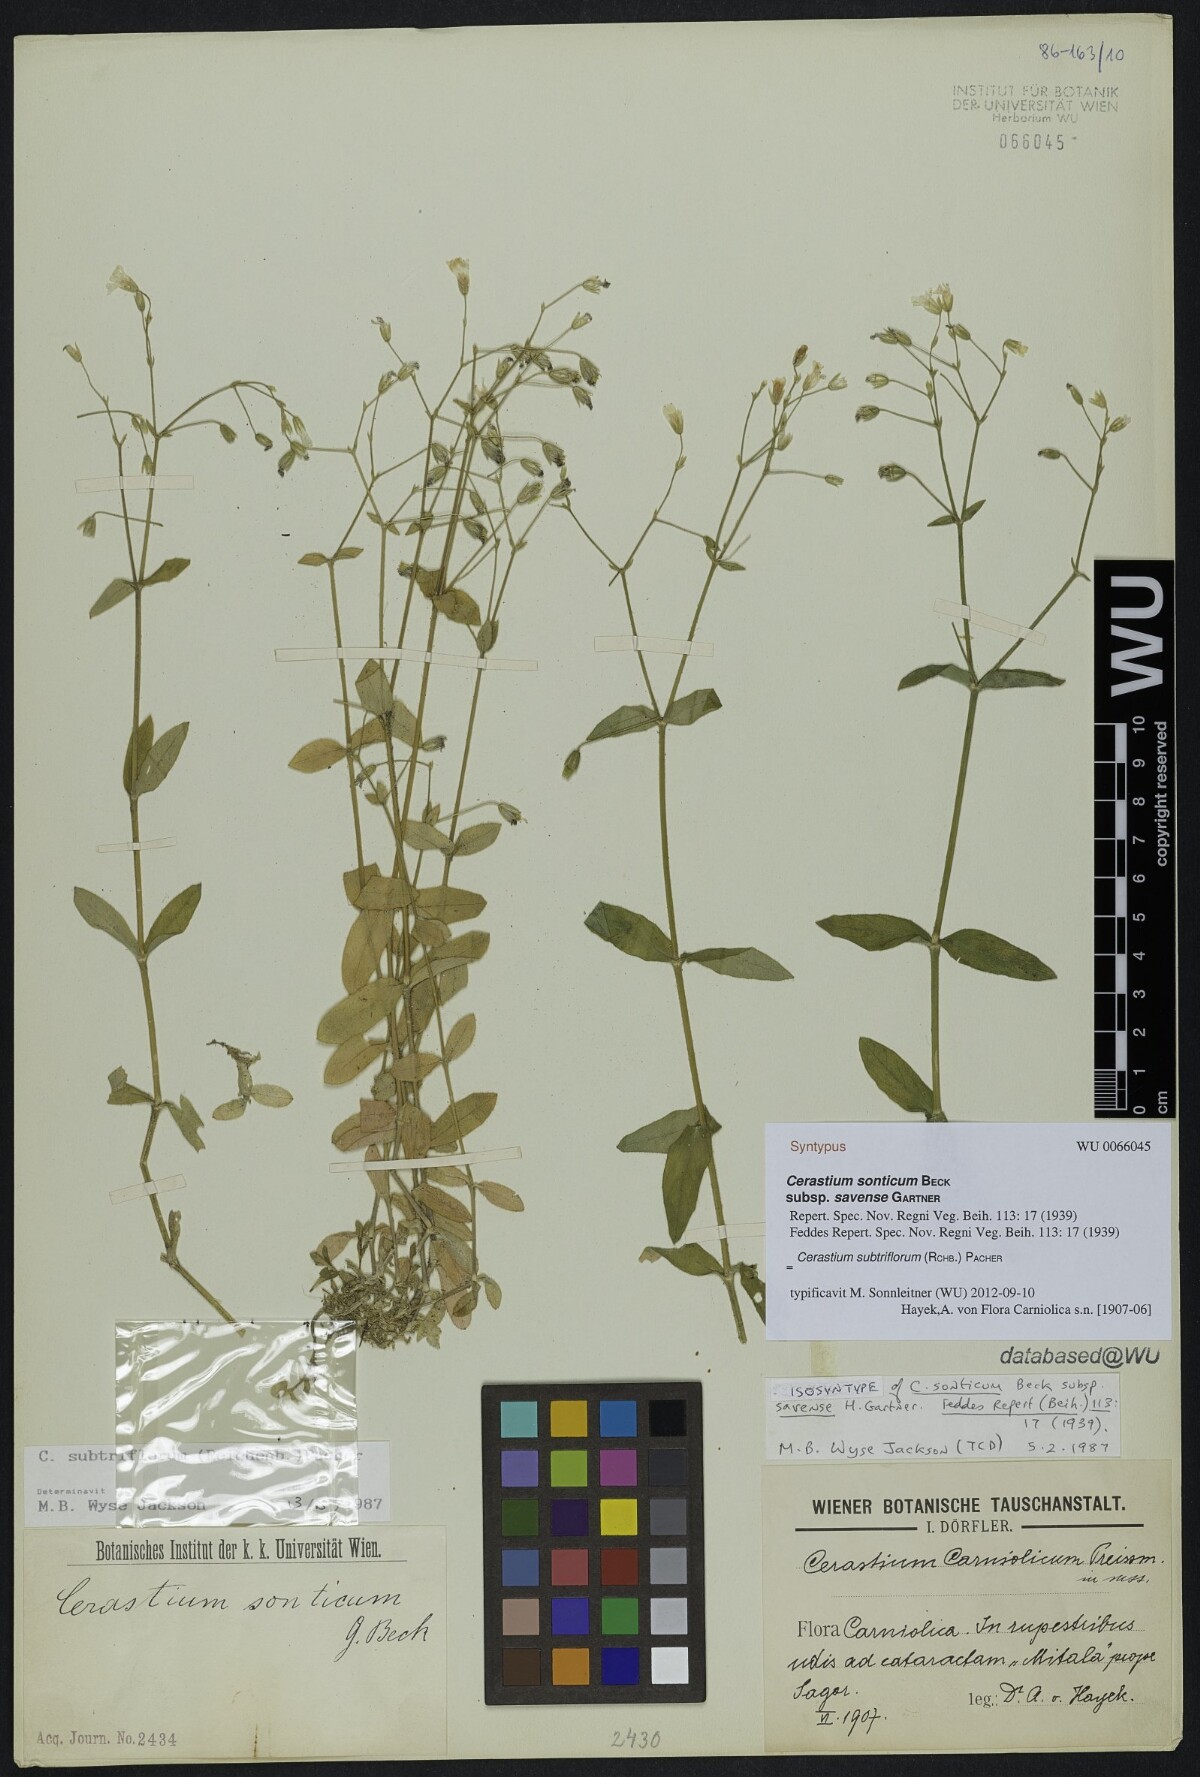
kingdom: Plantae
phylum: Tracheophyta
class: Magnoliopsida
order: Caryophyllales
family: Caryophyllaceae
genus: Cerastium
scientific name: Cerastium subtriflorum
